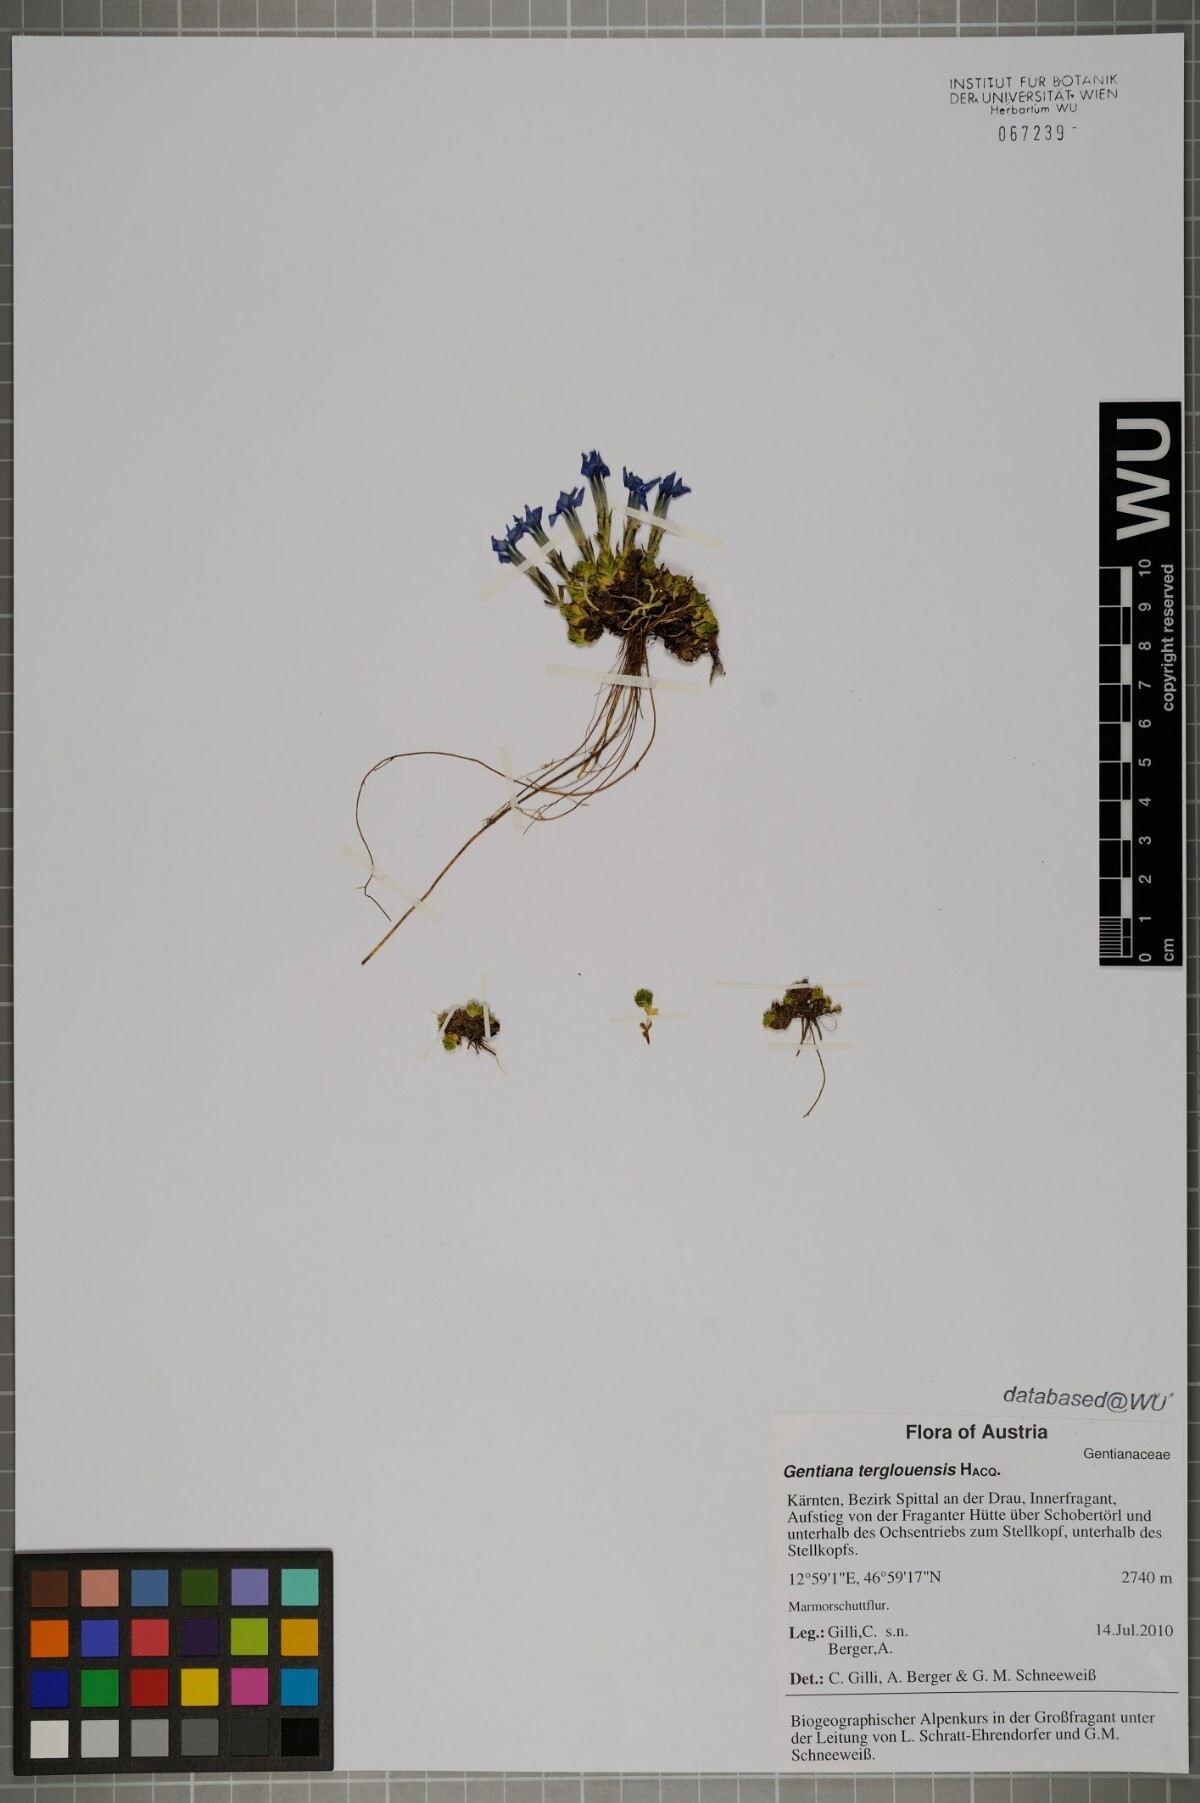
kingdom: Plantae
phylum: Tracheophyta
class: Magnoliopsida
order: Gentianales
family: Gentianaceae
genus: Gentiana
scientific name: Gentiana terglouensis
